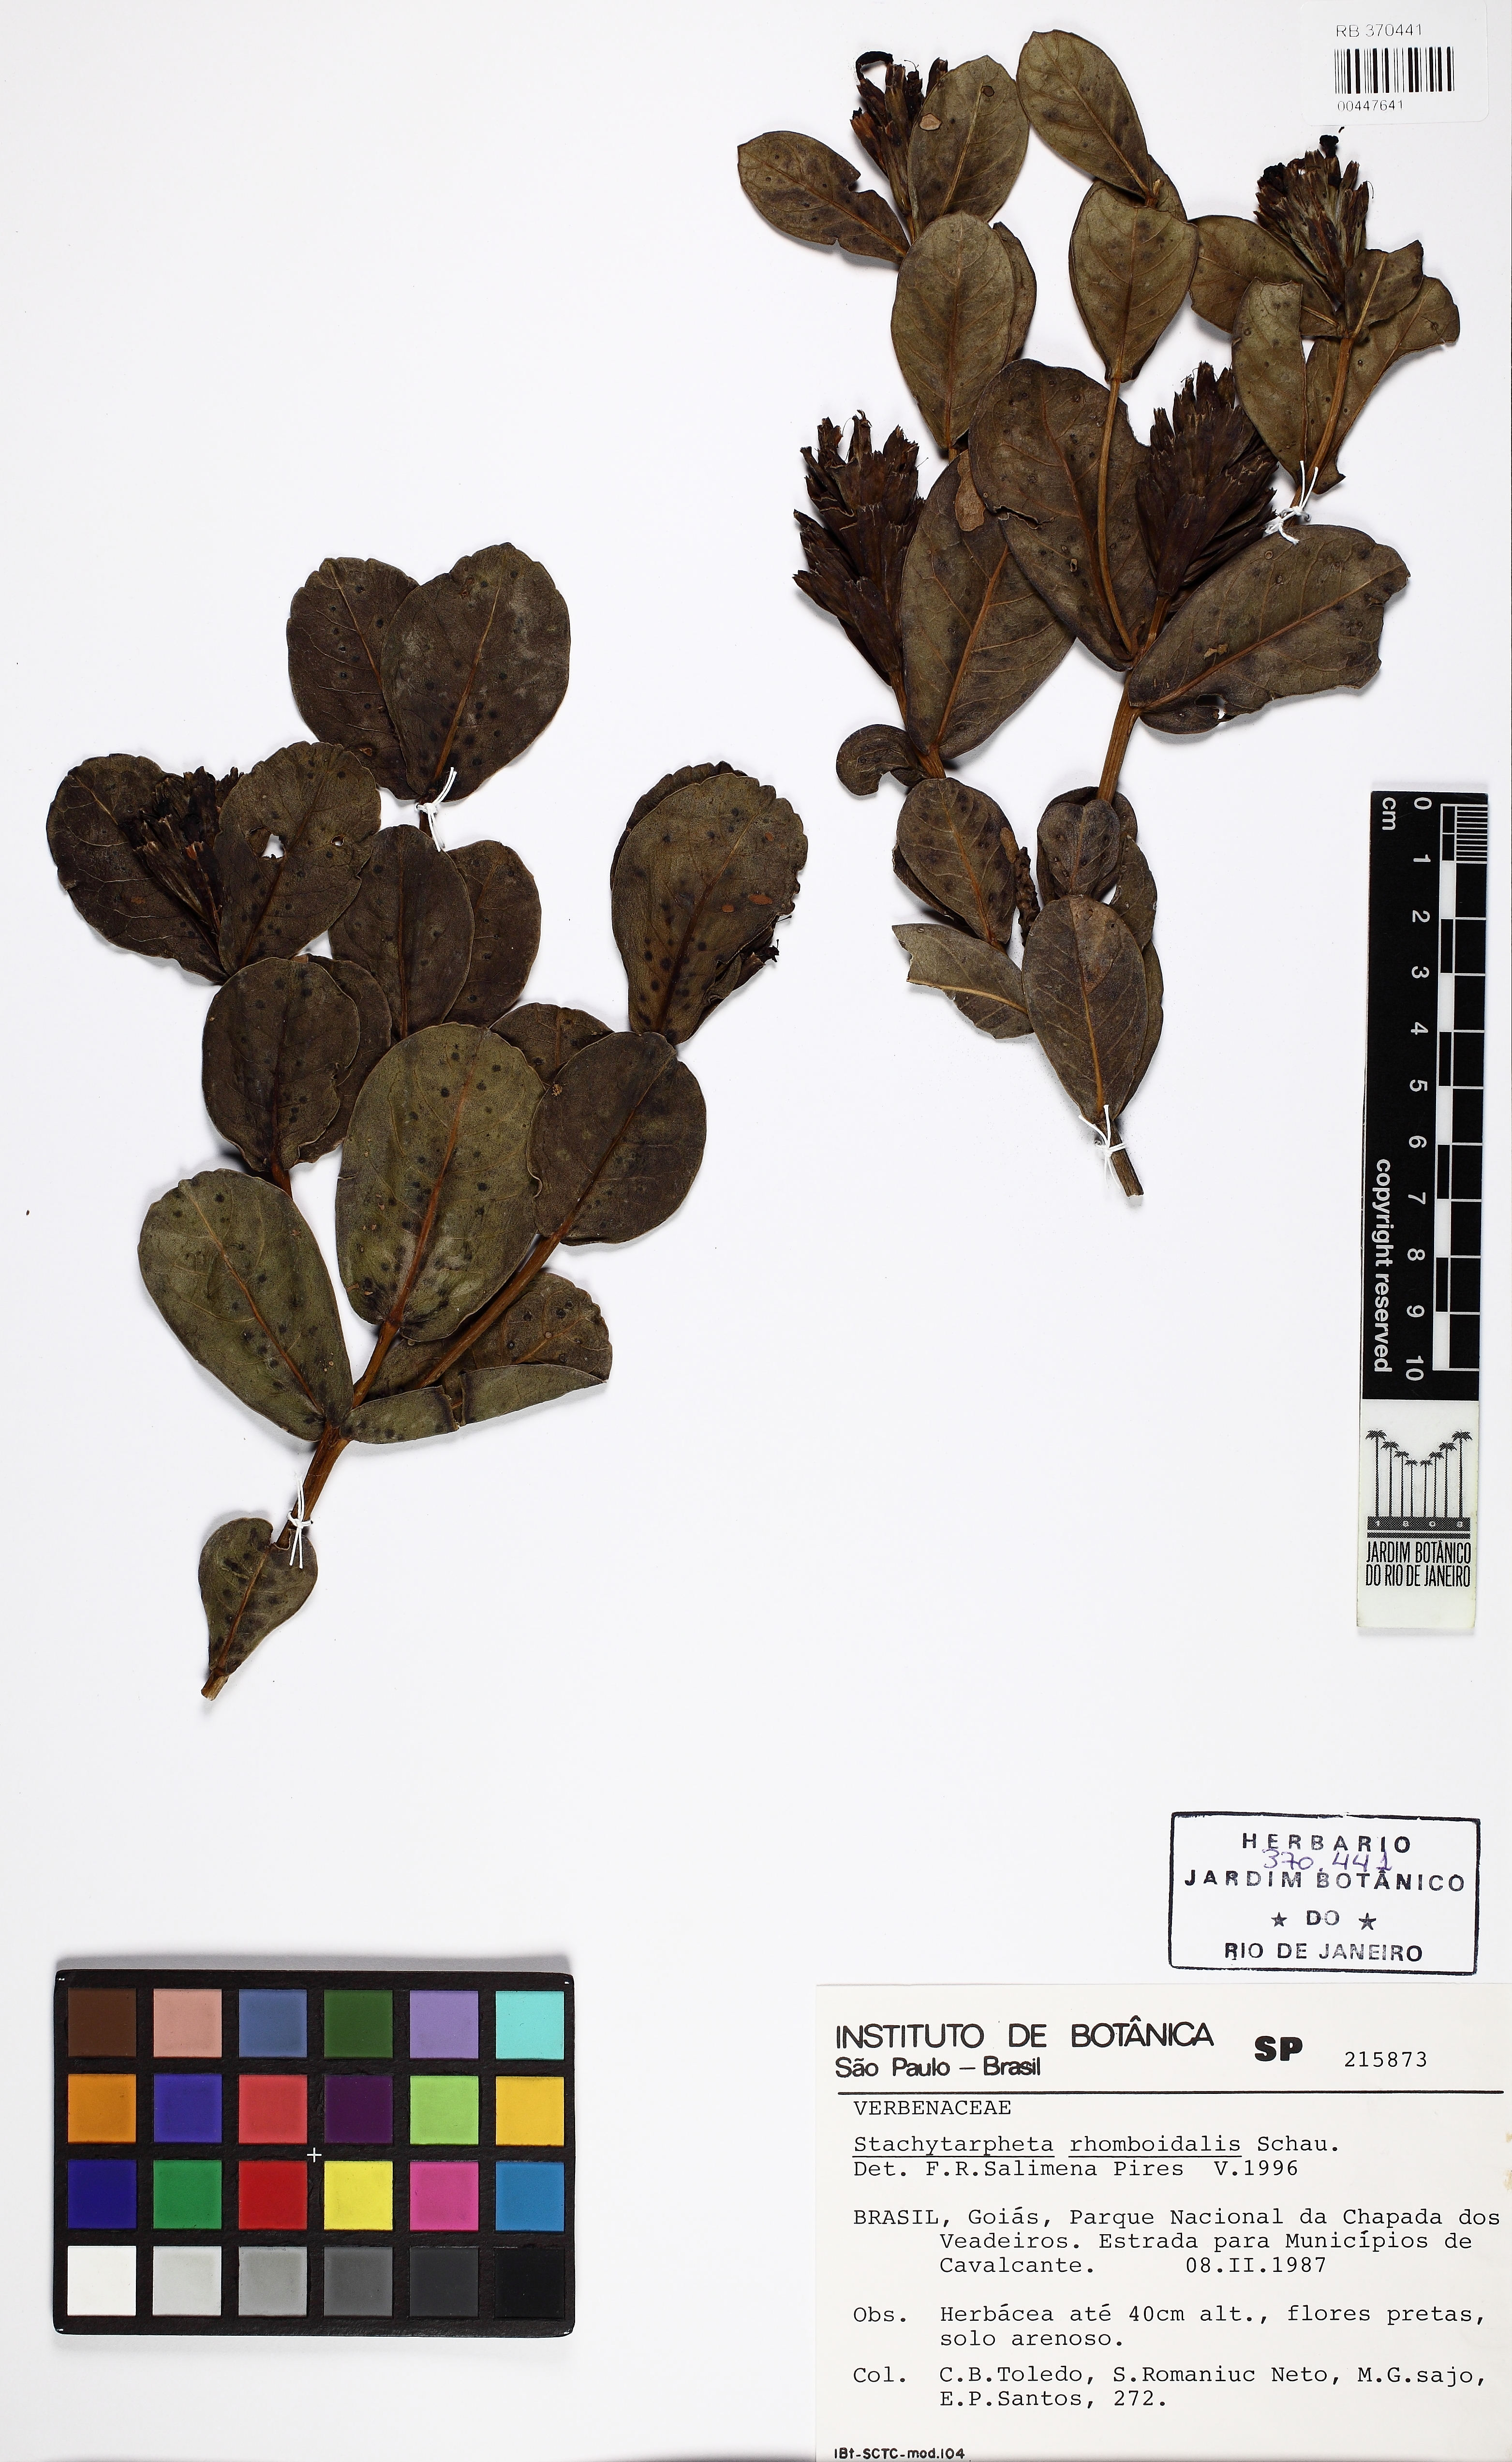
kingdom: Plantae
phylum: Tracheophyta
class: Magnoliopsida
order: Lamiales
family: Verbenaceae
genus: Stachytarpheta
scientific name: Stachytarpheta glauca
